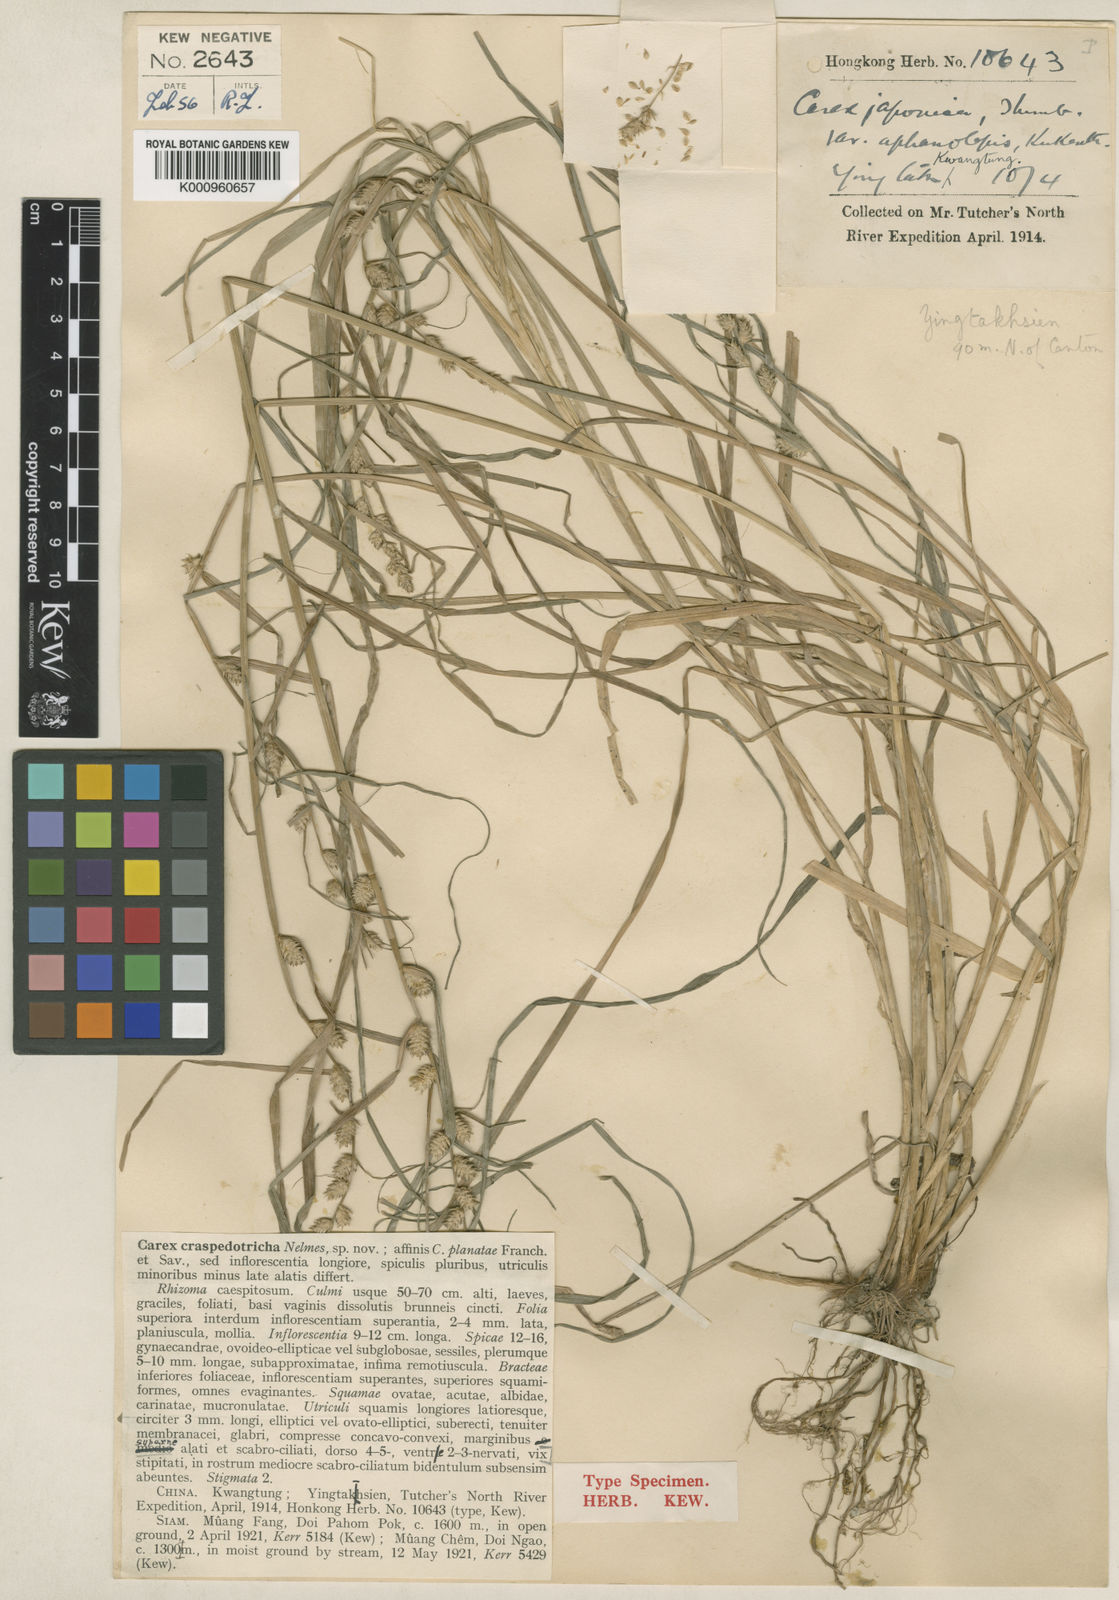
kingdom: Plantae
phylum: Tracheophyta
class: Liliopsida
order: Poales
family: Cyperaceae
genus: Carex
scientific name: Carex craspedotricha
